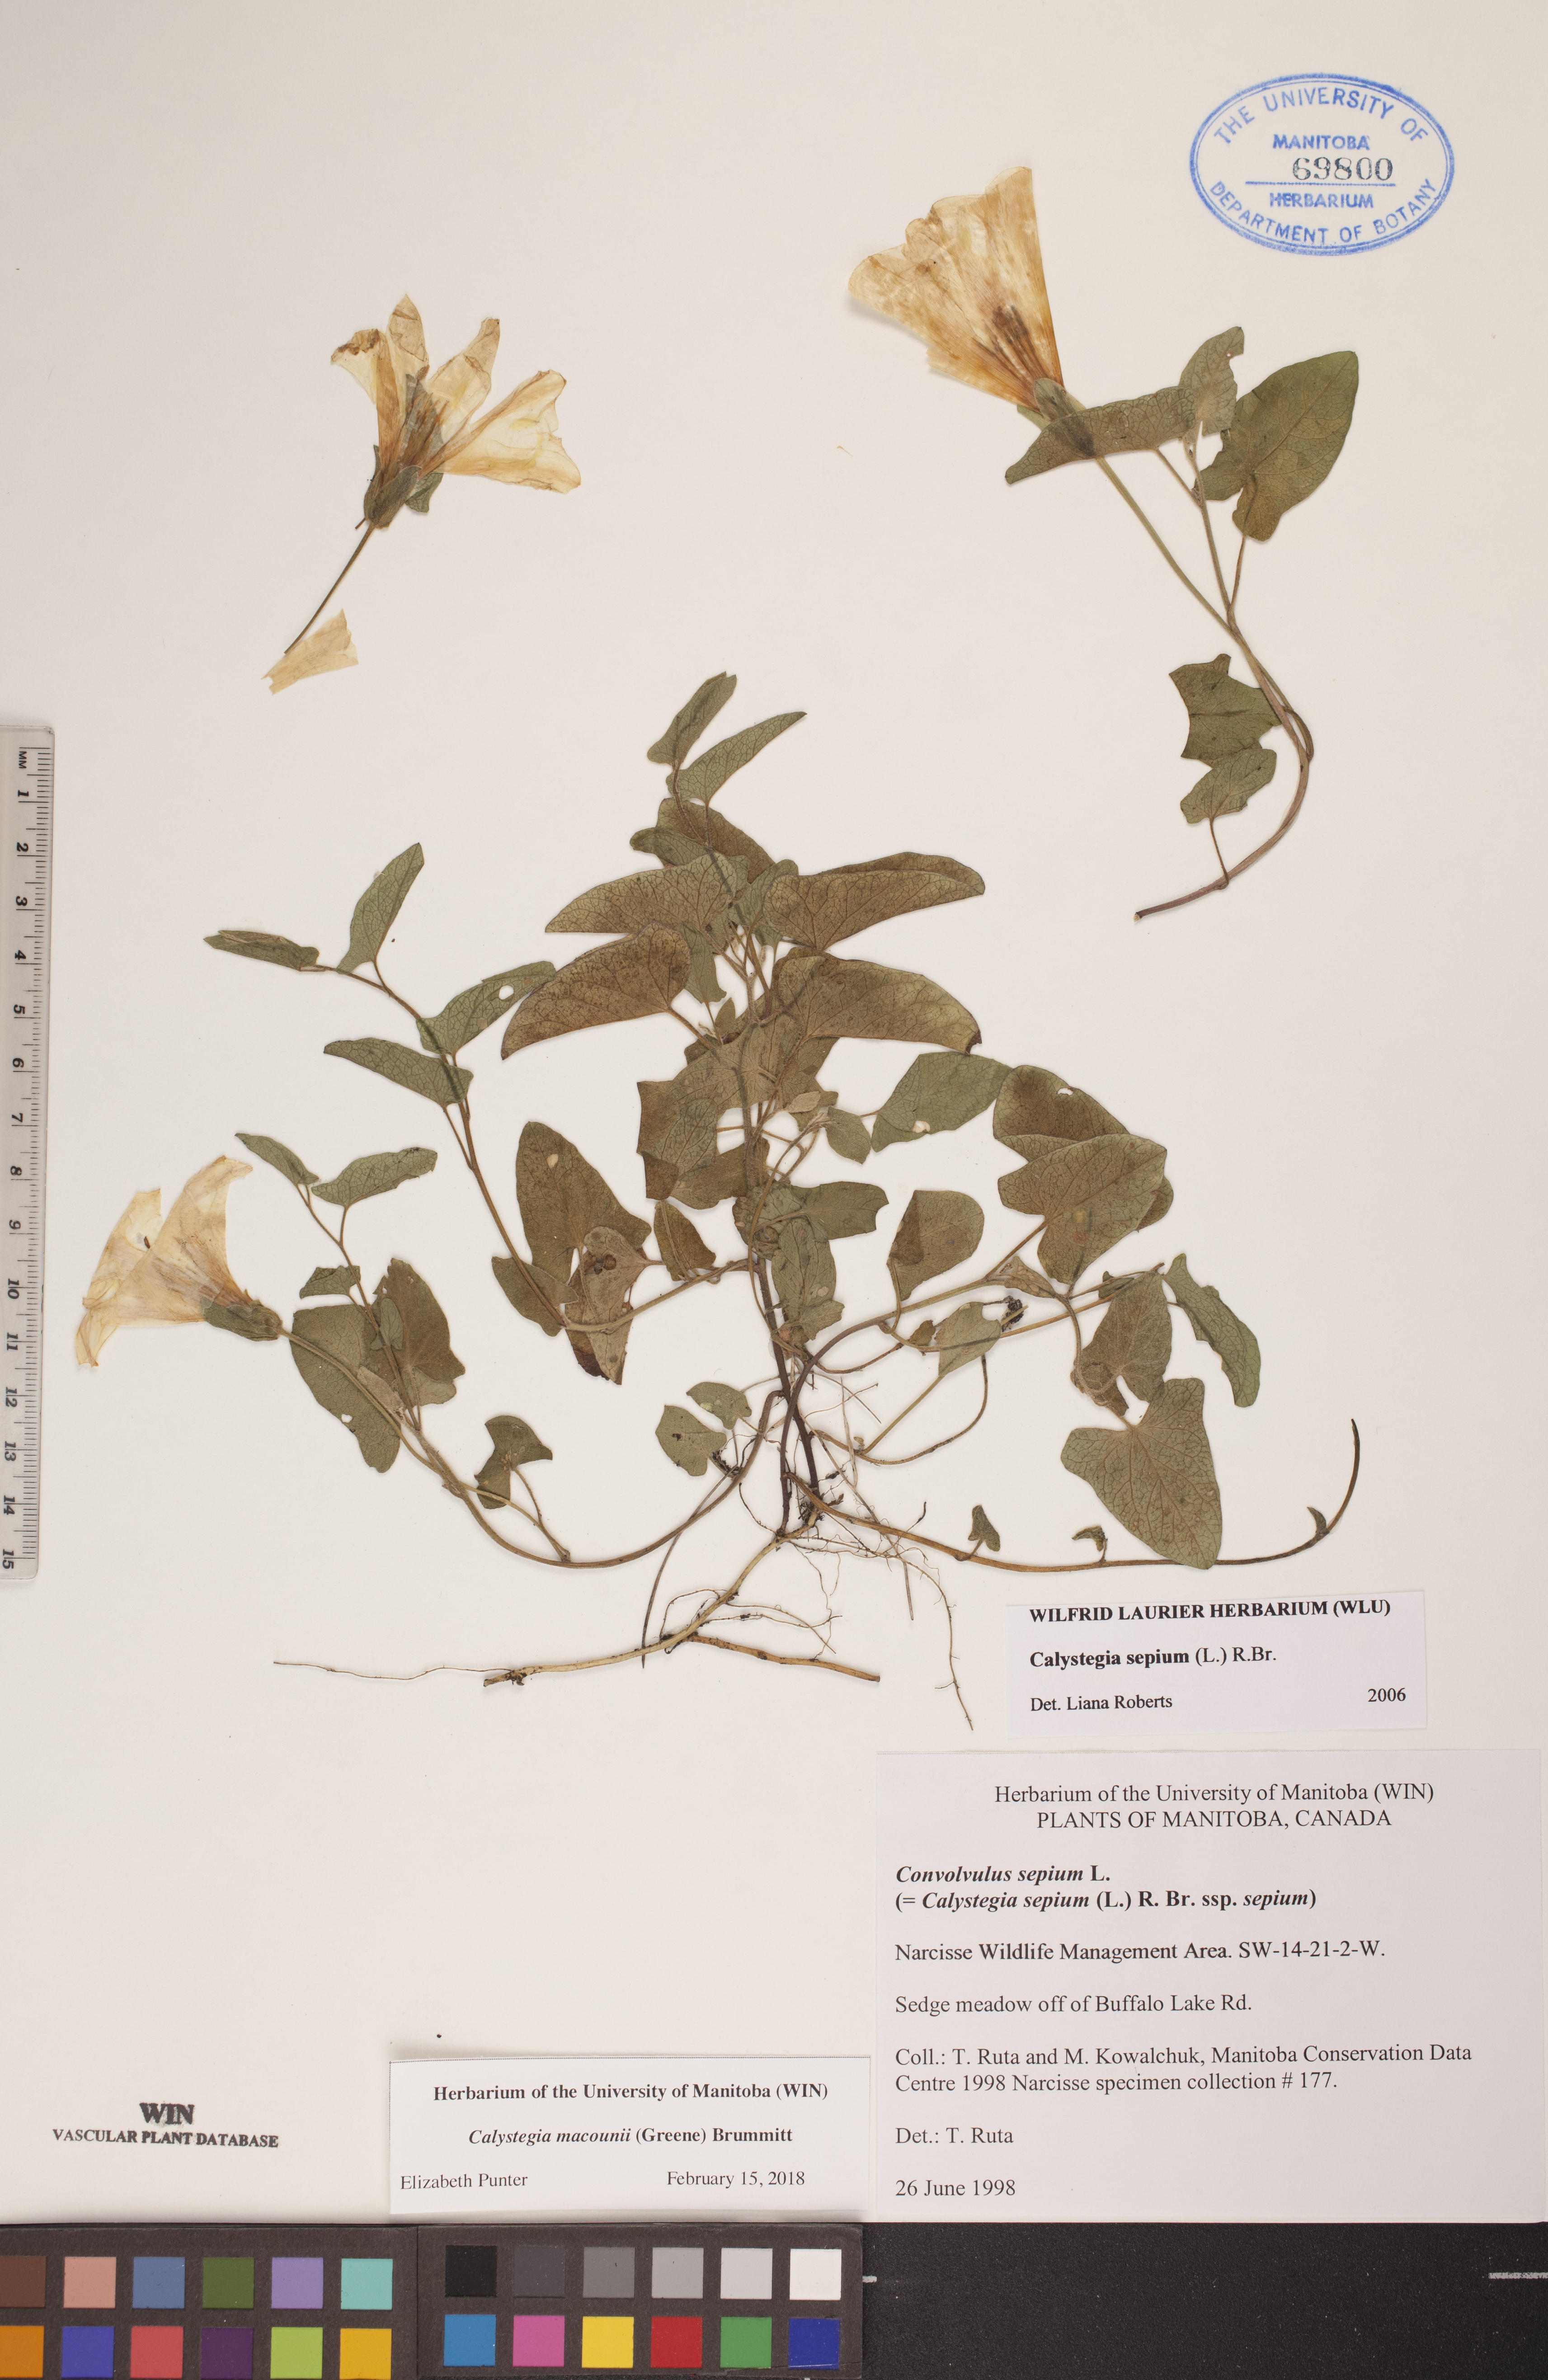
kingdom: Plantae
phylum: Tracheophyta
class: Magnoliopsida
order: Solanales
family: Convolvulaceae
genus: Calystegia
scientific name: Calystegia macounii
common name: Macoun's bindweed
